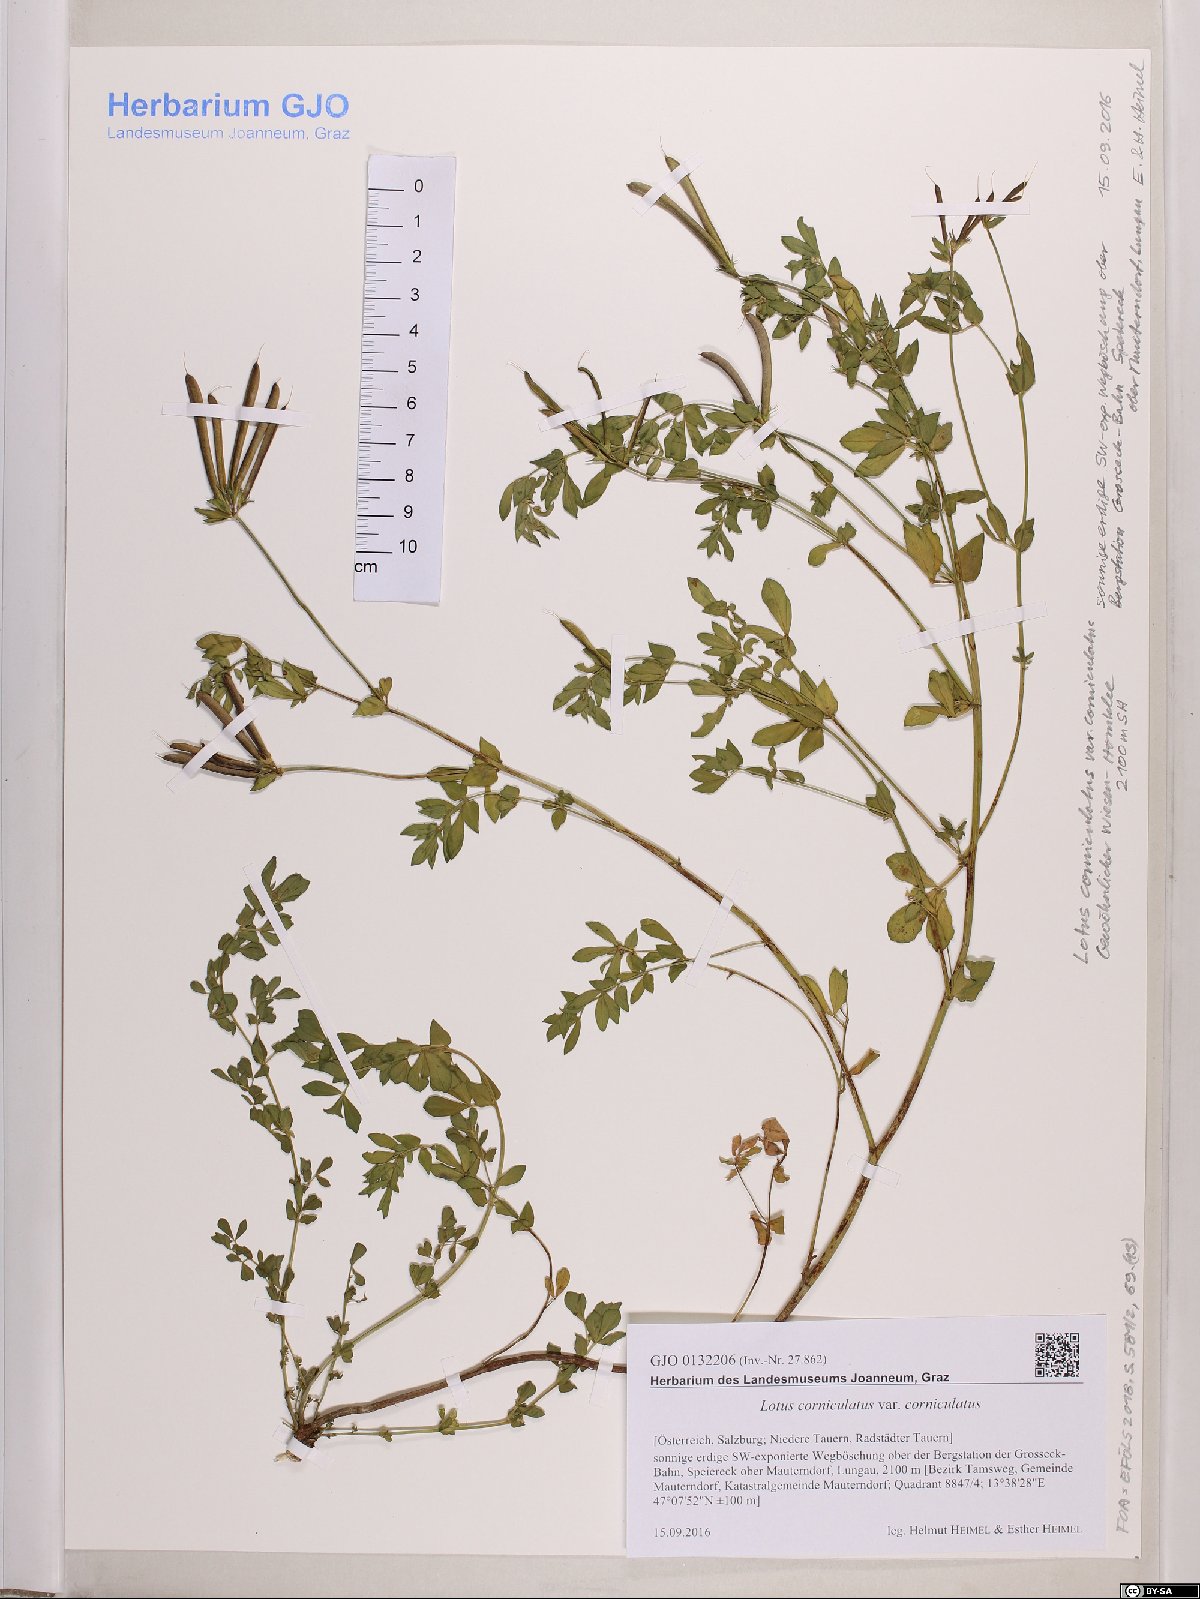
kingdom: Plantae
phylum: Tracheophyta
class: Magnoliopsida
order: Fabales
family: Fabaceae
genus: Lotus
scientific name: Lotus corniculatus
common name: Common bird's-foot-trefoil
